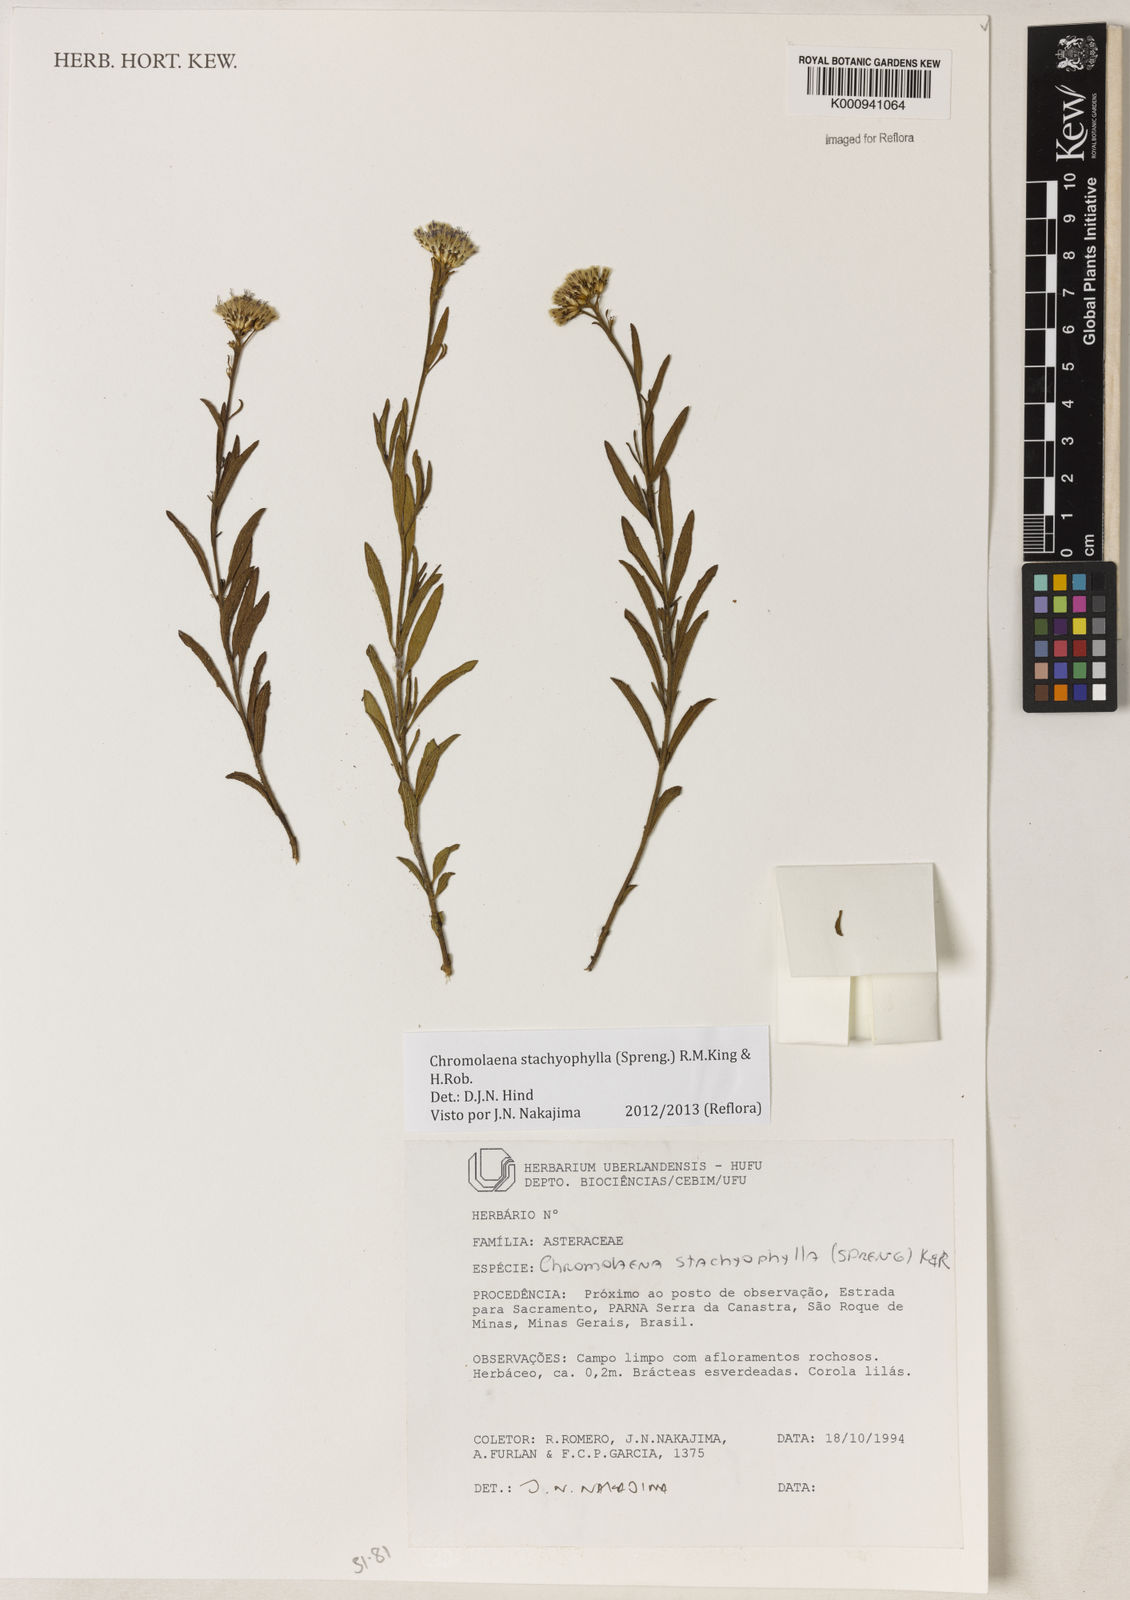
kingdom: Plantae
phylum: Tracheophyta
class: Magnoliopsida
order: Asterales
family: Asteraceae
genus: Chromolaena
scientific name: Chromolaena stachyophylla
